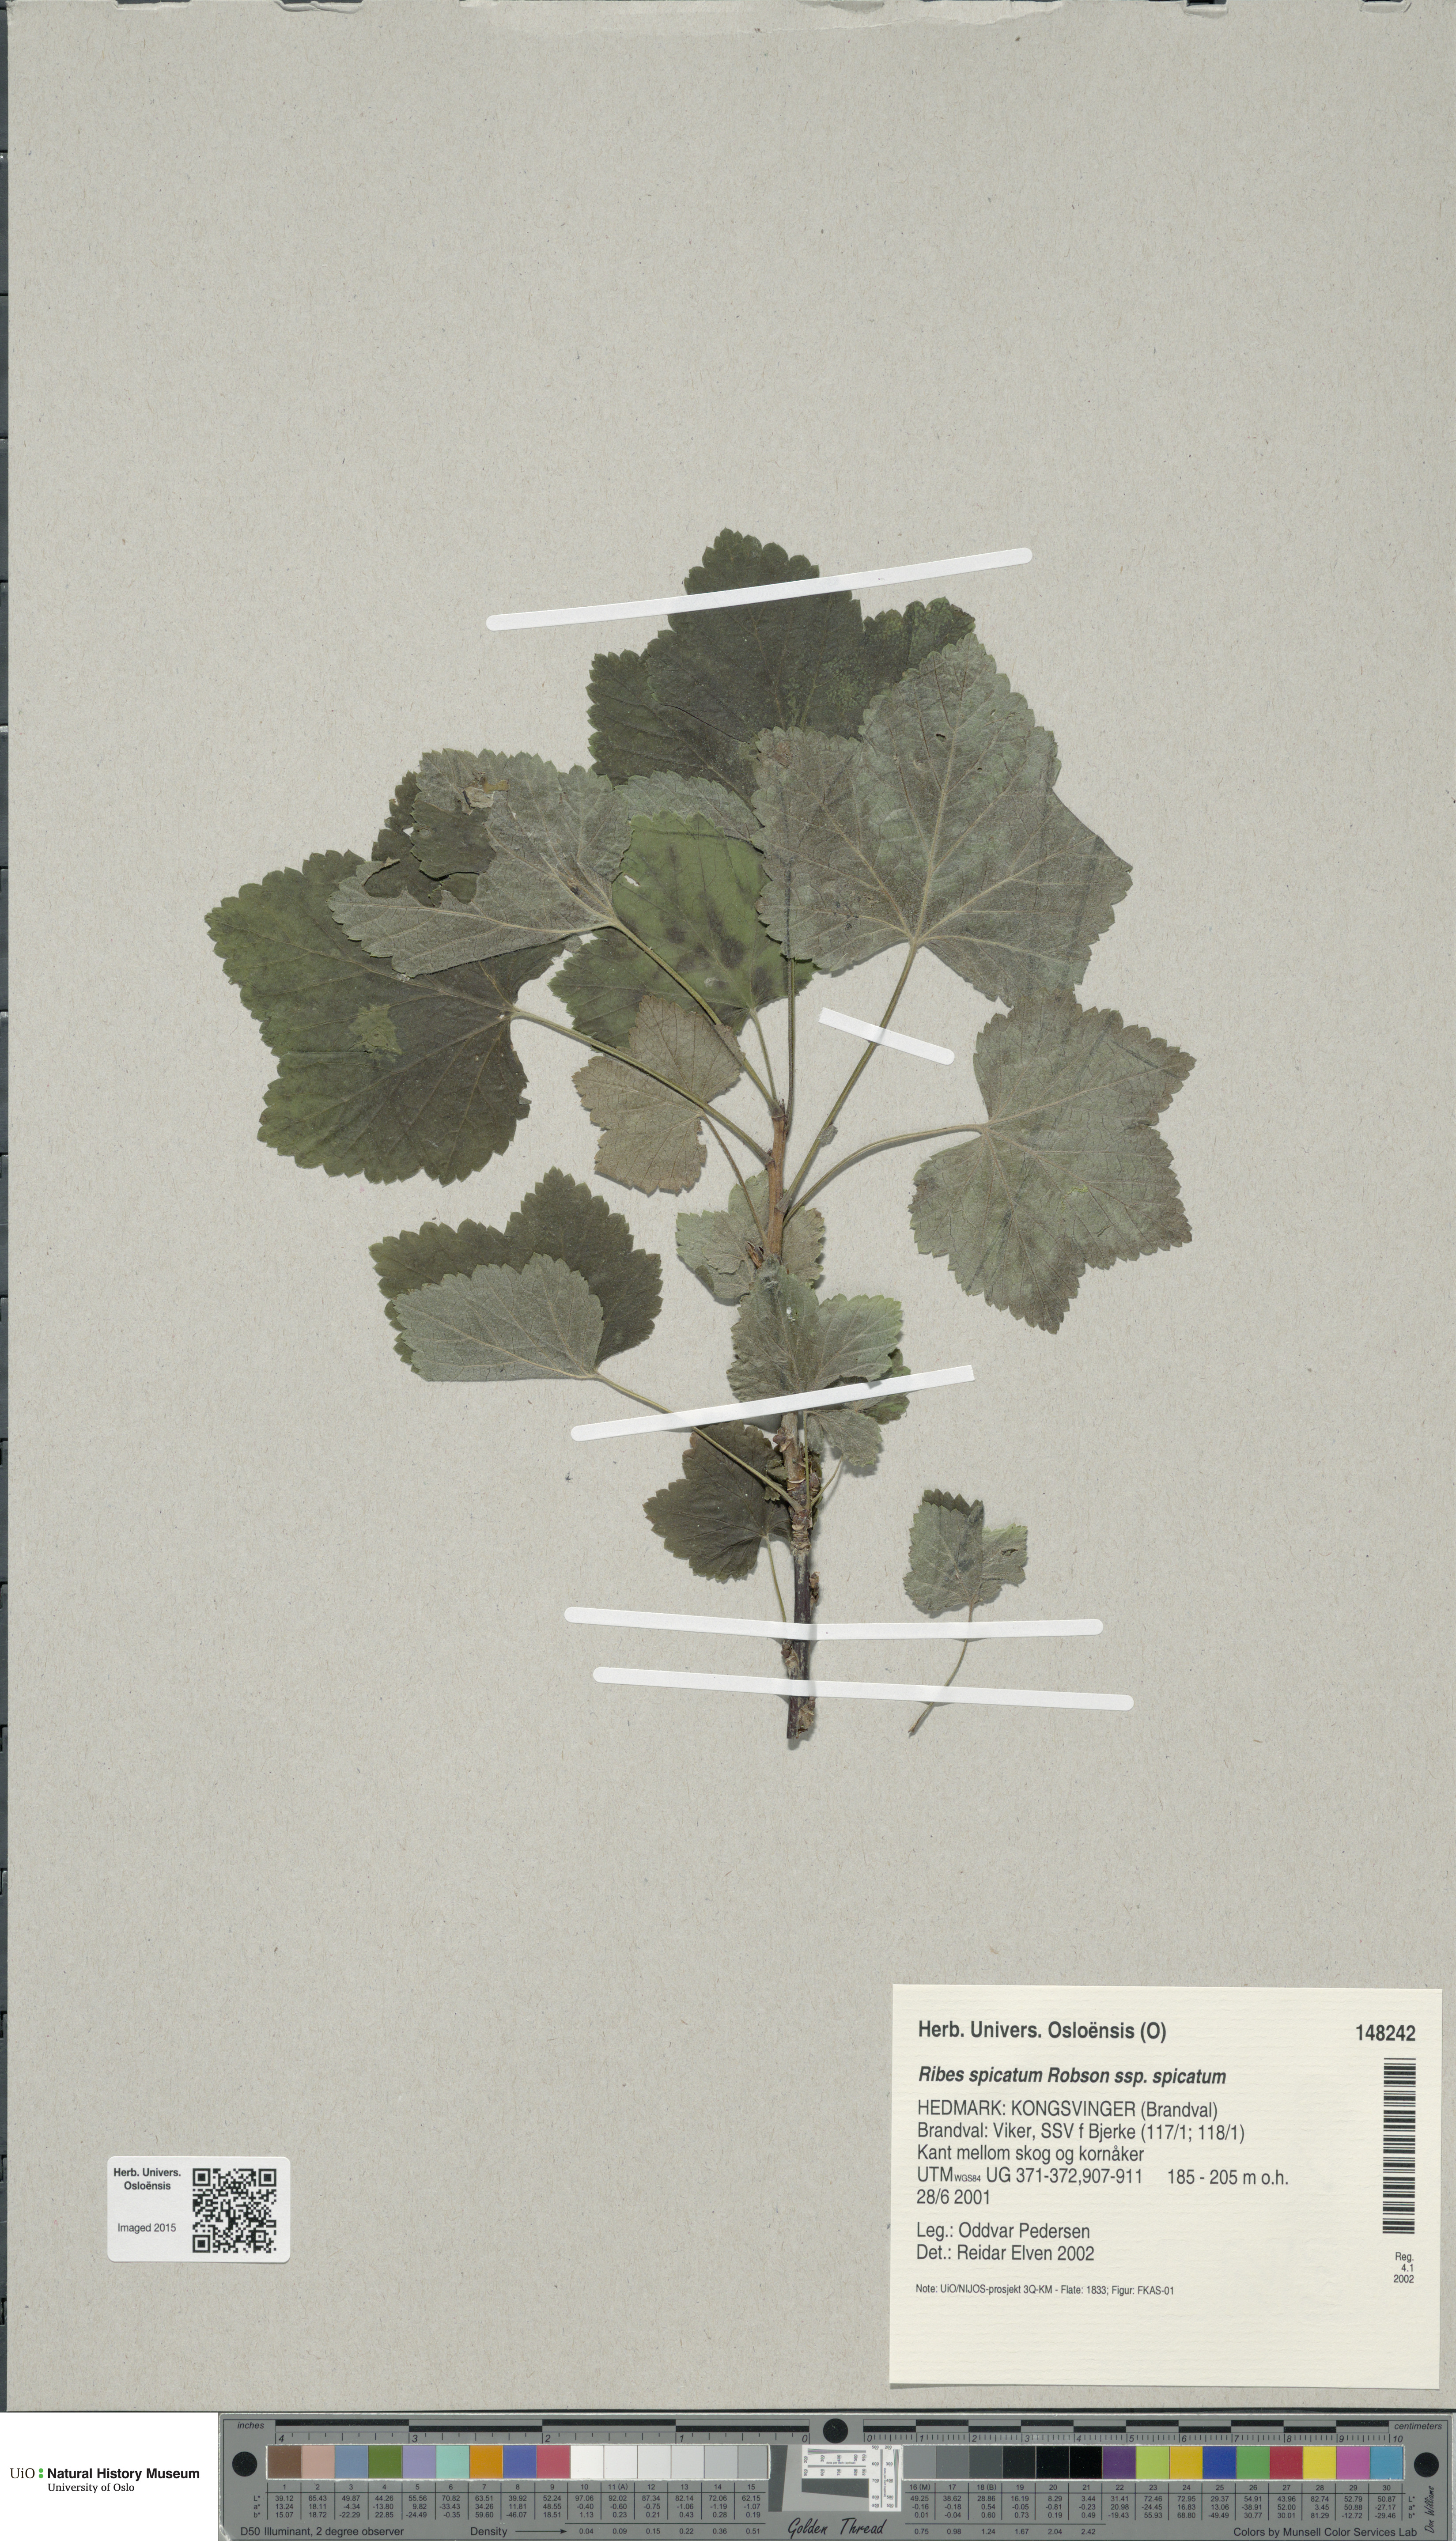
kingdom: Plantae
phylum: Tracheophyta
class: Magnoliopsida
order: Saxifragales
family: Grossulariaceae
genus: Ribes
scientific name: Ribes spicatum
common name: Downy currant
